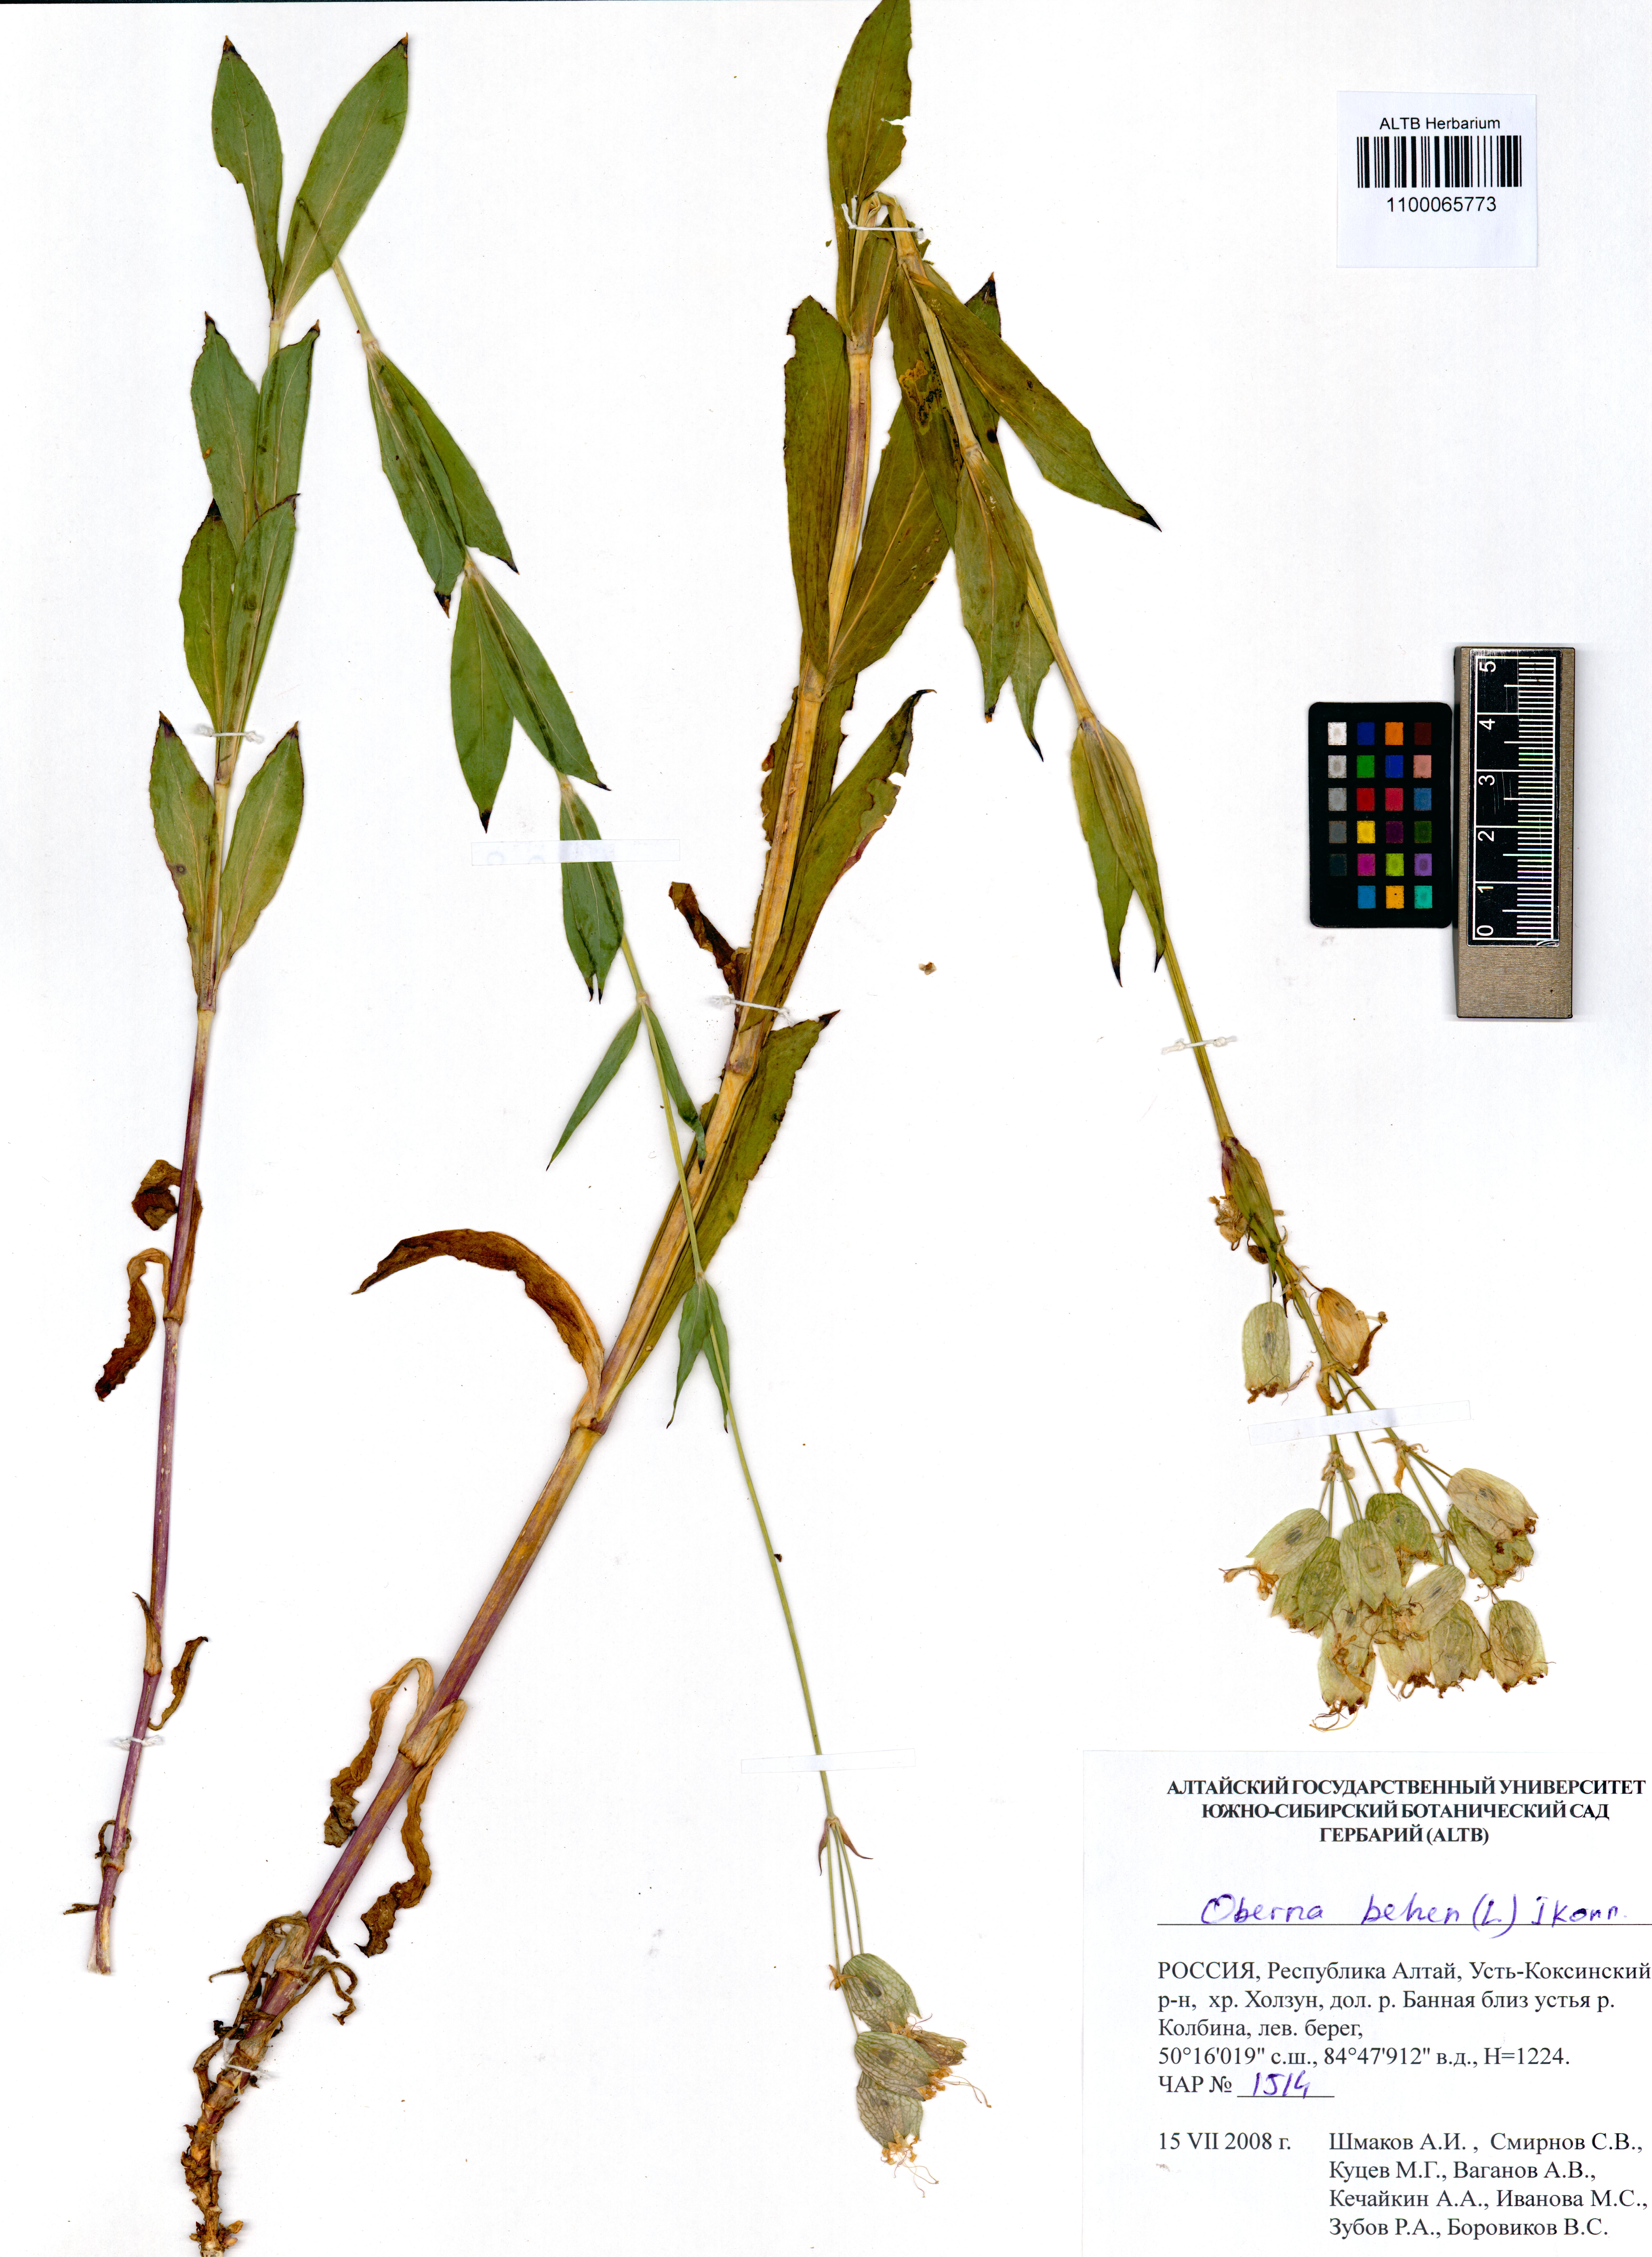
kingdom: Plantae
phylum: Tracheophyta
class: Magnoliopsida
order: Caryophyllales
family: Caryophyllaceae
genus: Silene
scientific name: Silene behen
